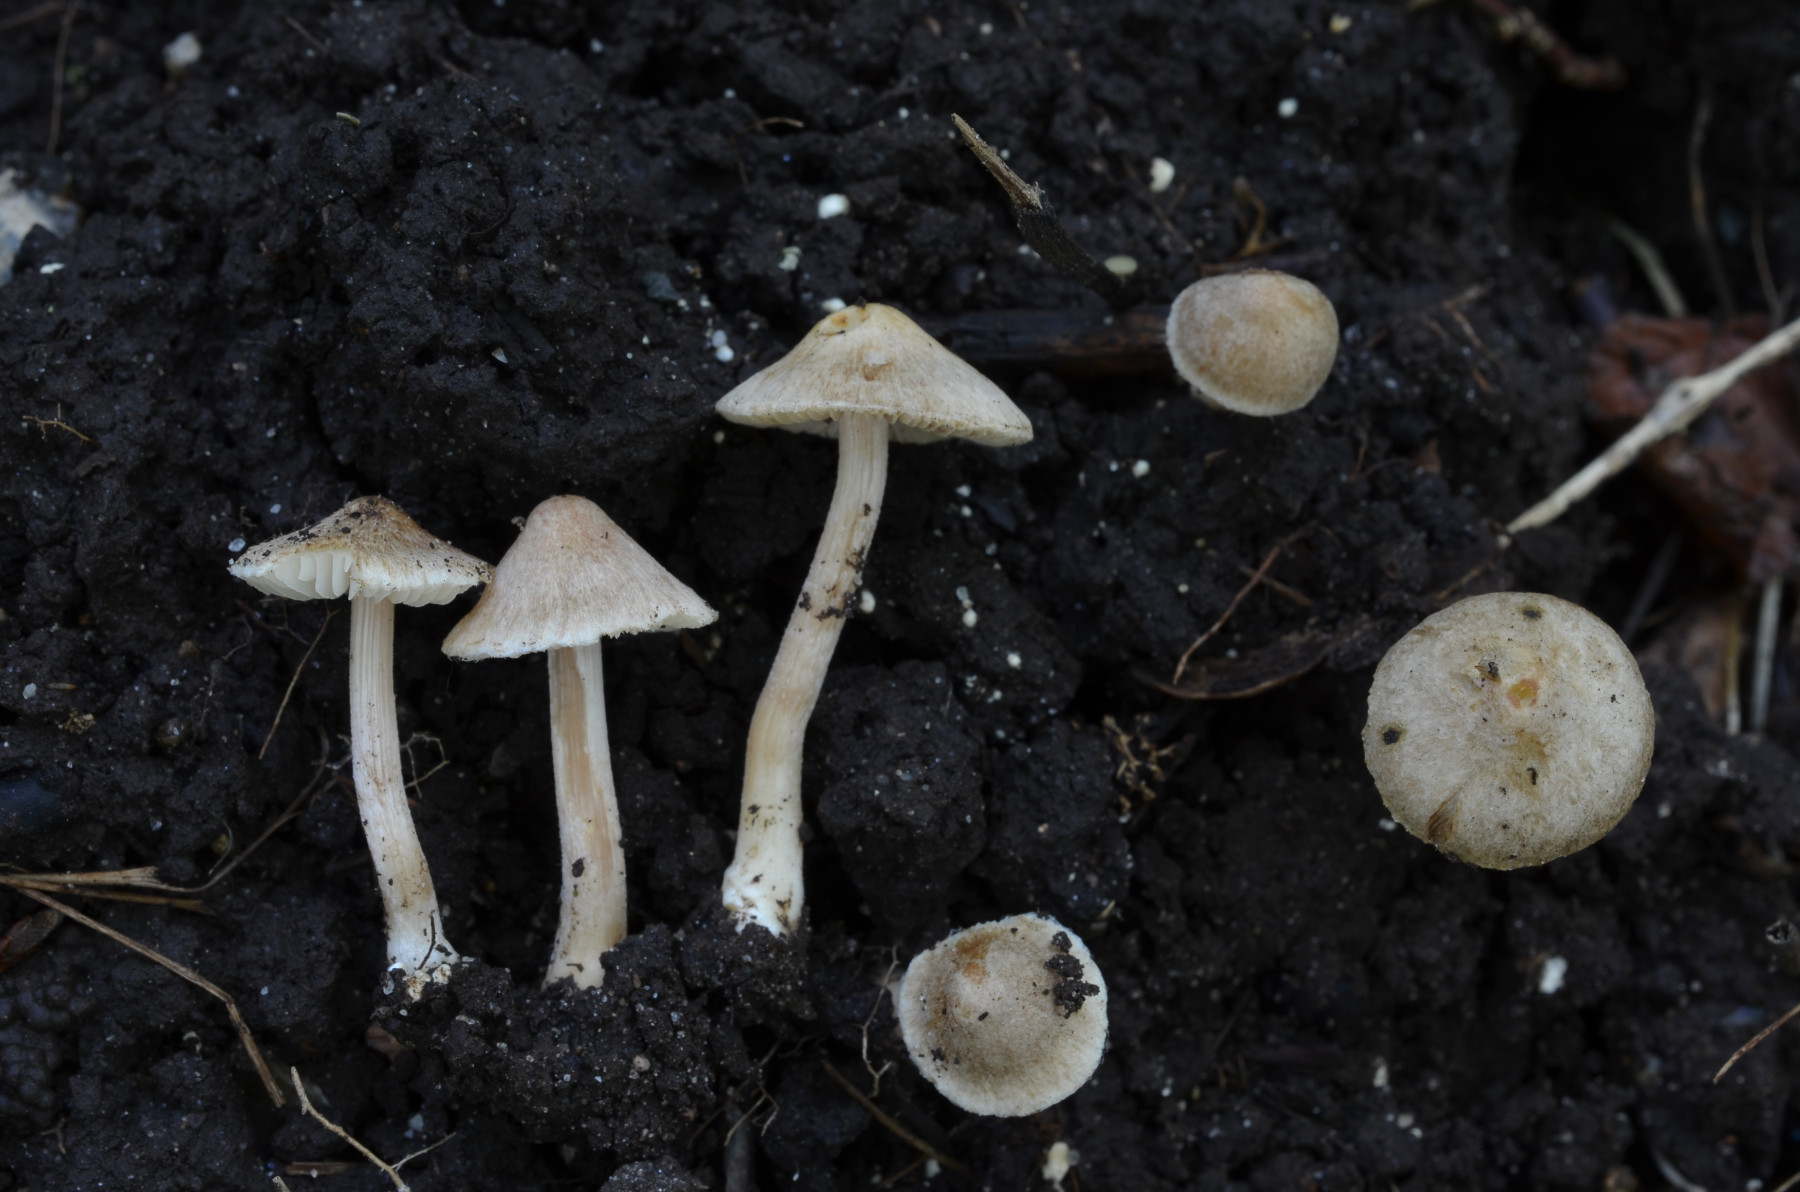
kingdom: Fungi
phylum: Basidiomycota
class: Agaricomycetes
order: Agaricales
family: Inocybaceae
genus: Inocybe
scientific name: Inocybe ovilla
